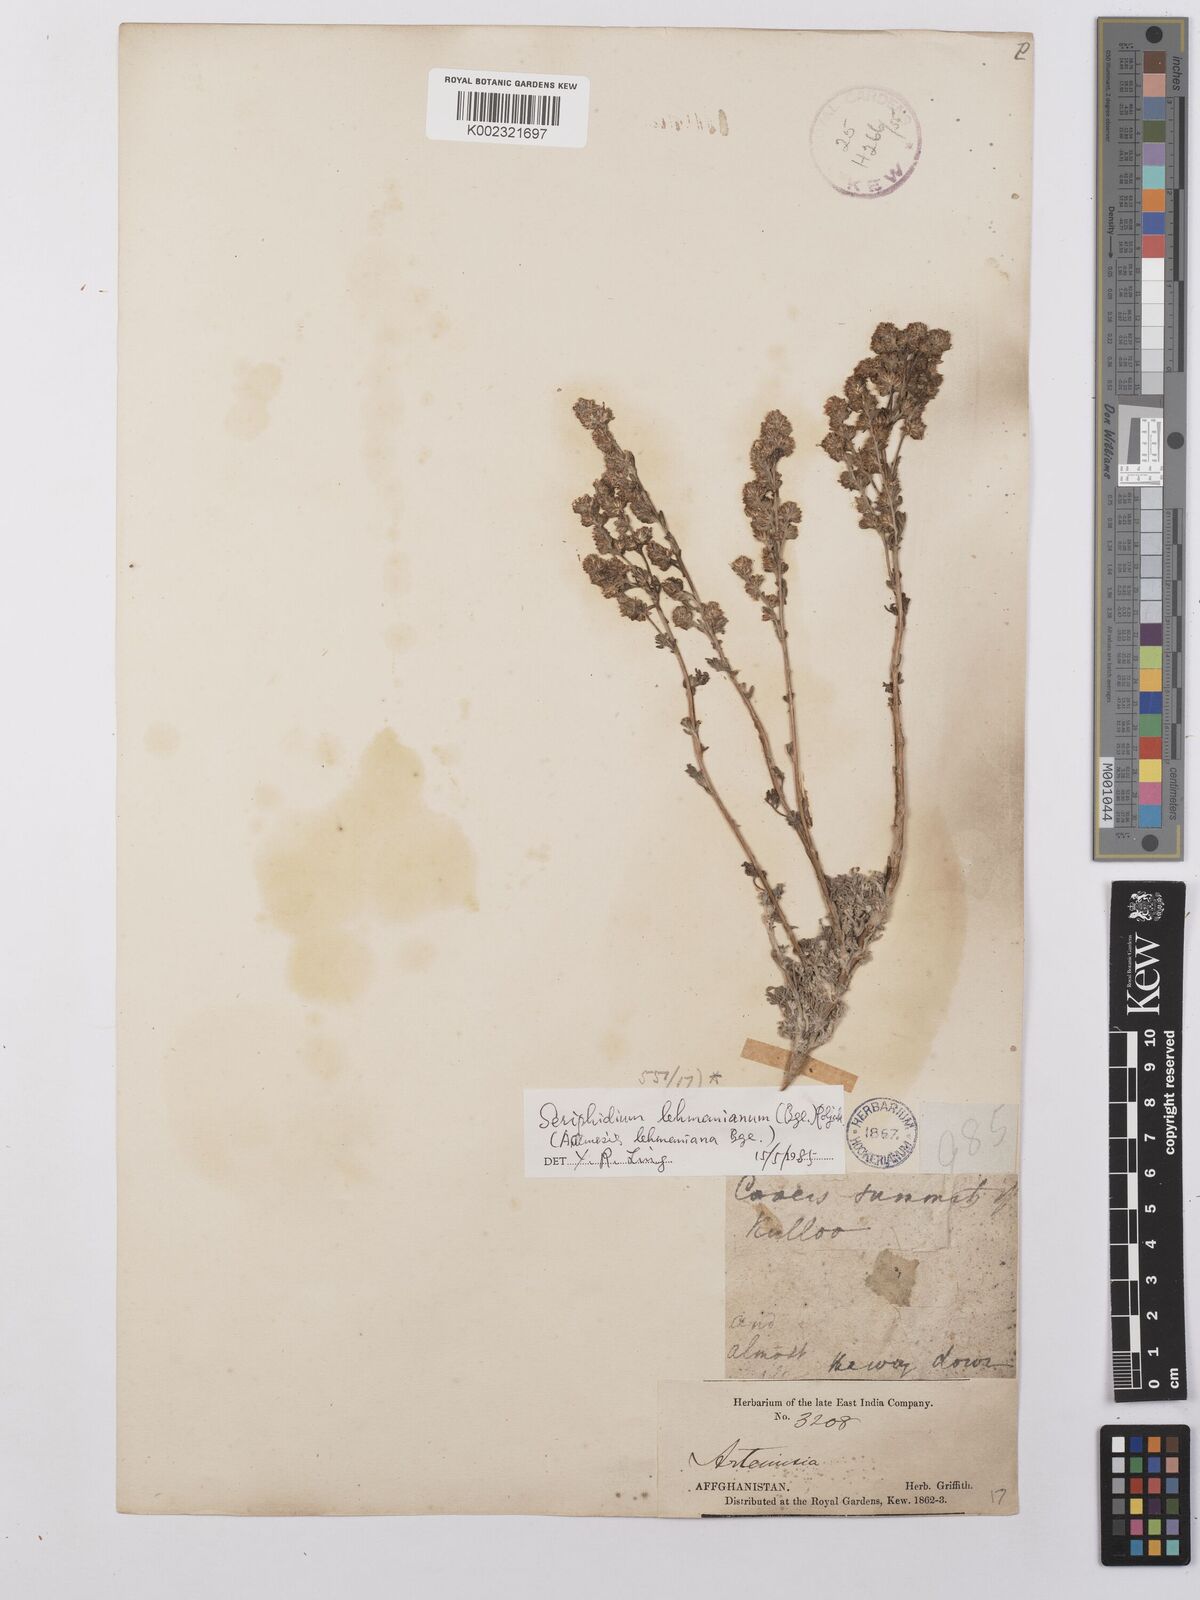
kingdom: Plantae
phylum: Tracheophyta
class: Magnoliopsida
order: Asterales
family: Asteraceae
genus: Artemisia
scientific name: Artemisia lehmanniana
